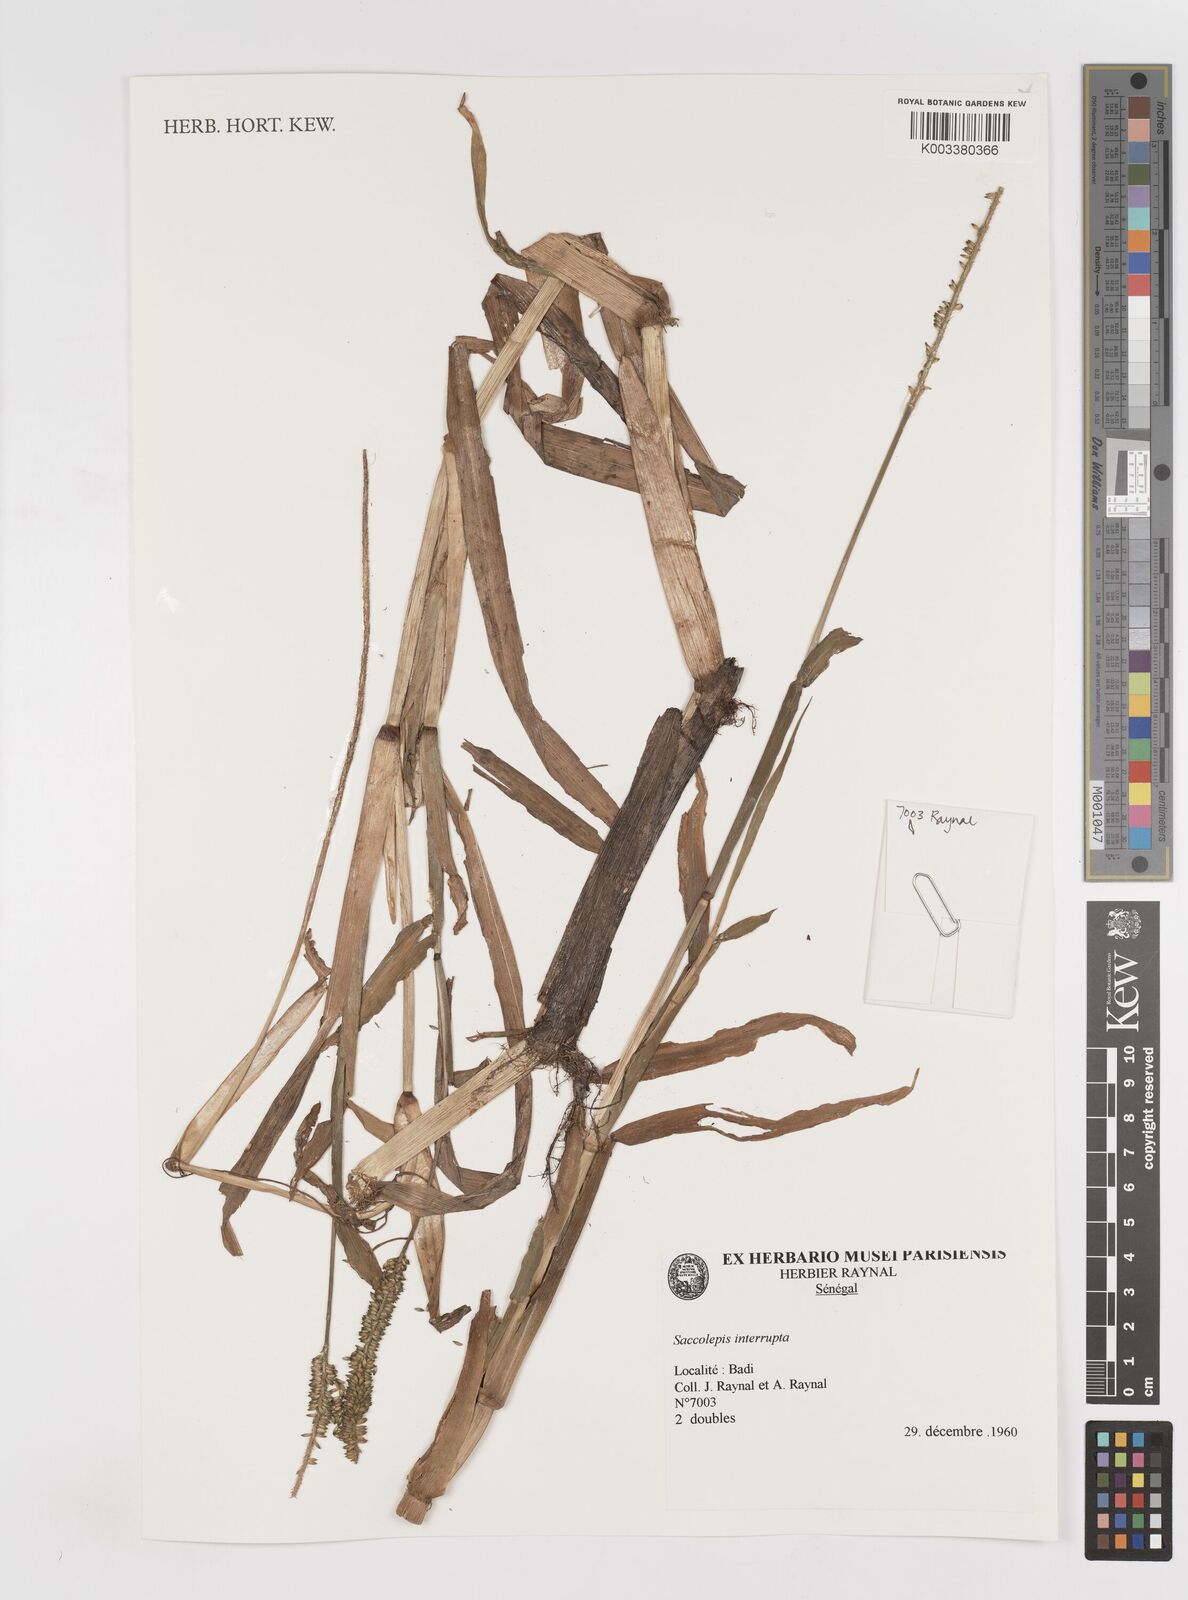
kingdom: Plantae
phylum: Tracheophyta
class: Liliopsida
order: Poales
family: Poaceae
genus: Sacciolepis
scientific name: Sacciolepis interrupta
